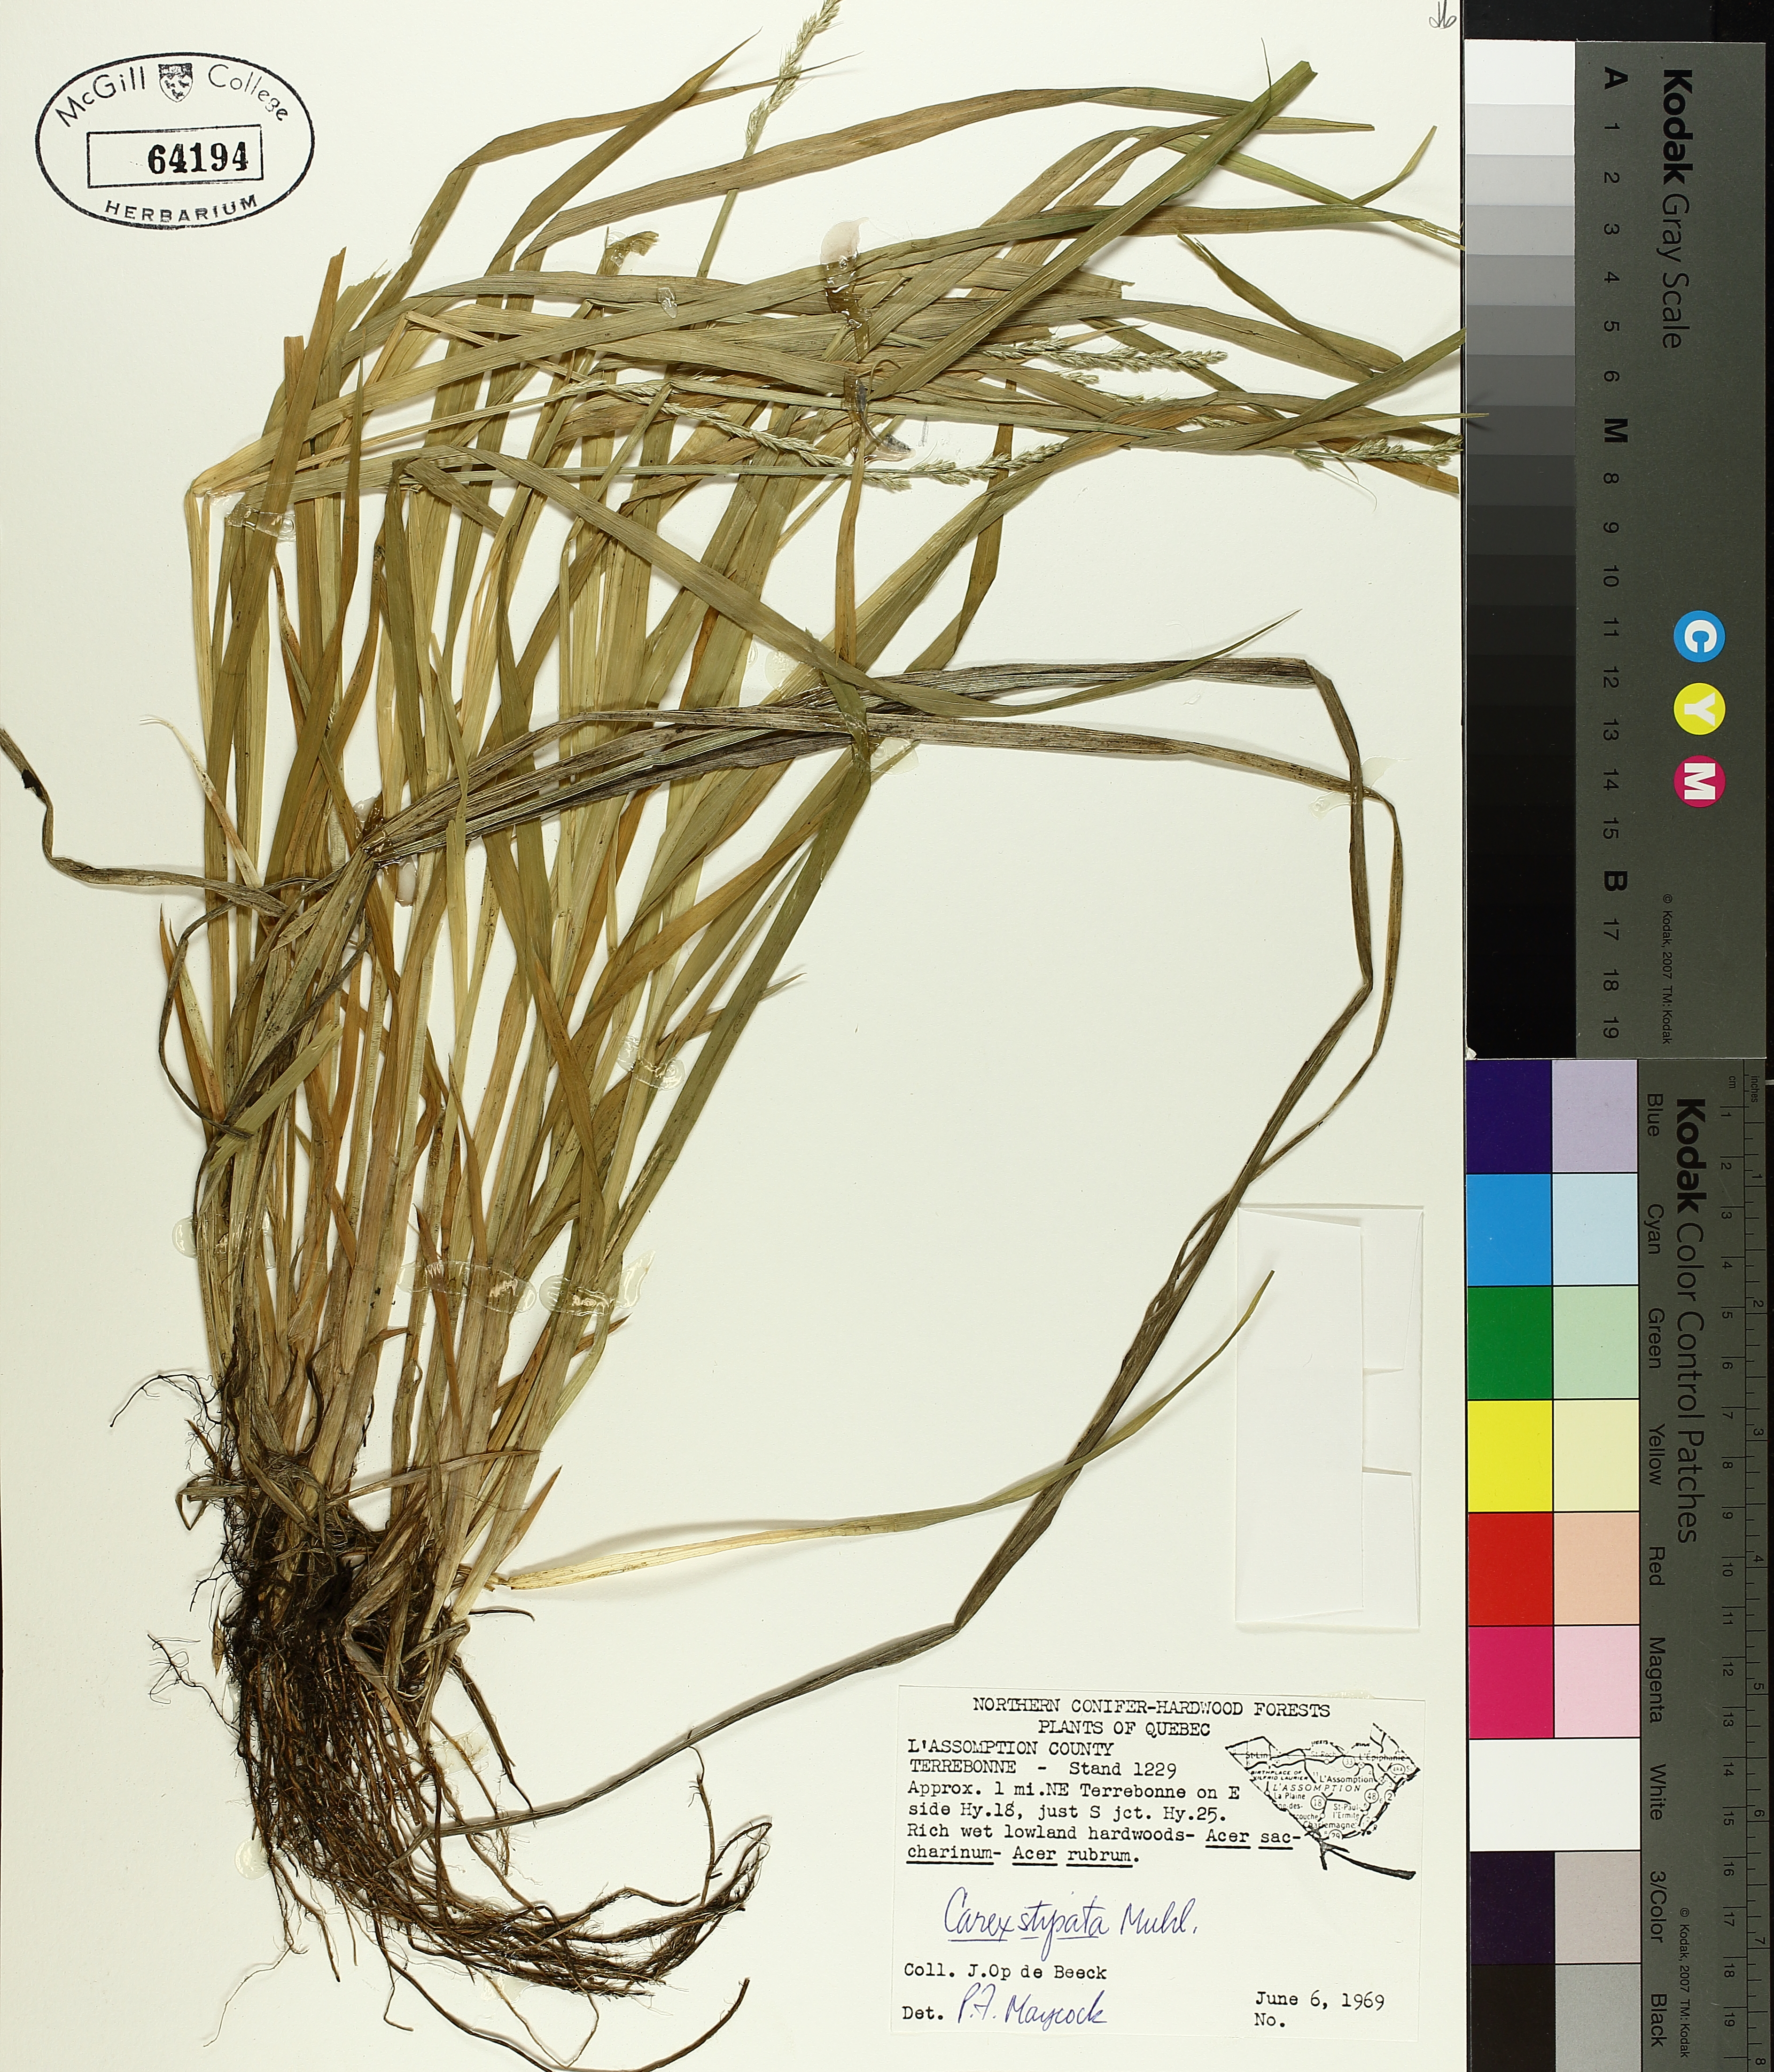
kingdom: Plantae
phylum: Tracheophyta
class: Liliopsida
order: Poales
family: Cyperaceae
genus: Carex
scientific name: Carex stipata
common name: Awl-fruited sedge
